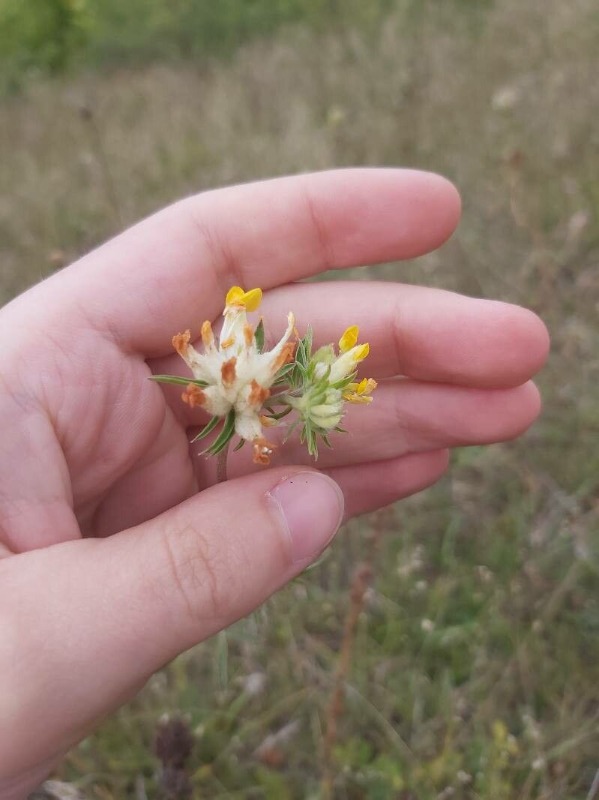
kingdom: Plantae
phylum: Tracheophyta
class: Magnoliopsida
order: Fabales
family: Fabaceae
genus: Anthyllis
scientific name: Anthyllis vulneraria
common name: Rundbælg
